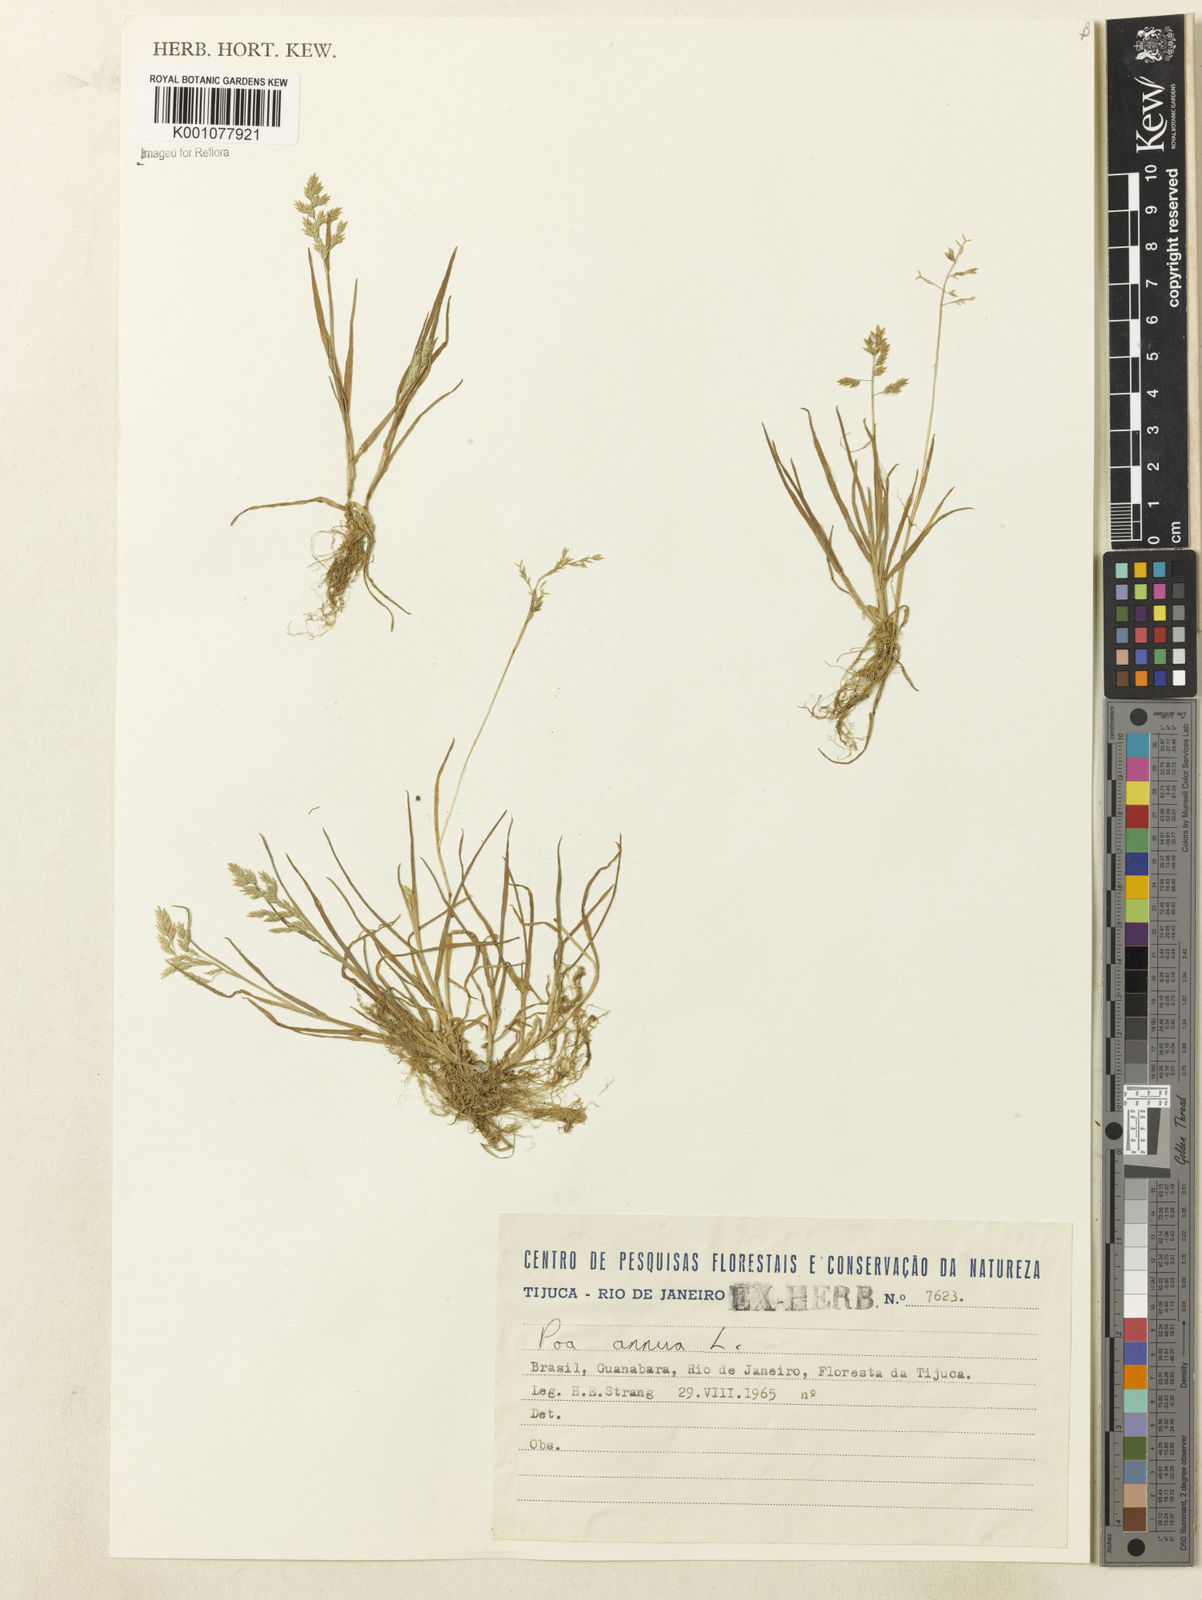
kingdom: Plantae
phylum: Tracheophyta
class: Liliopsida
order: Poales
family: Poaceae
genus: Poa
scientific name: Poa annua
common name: Annual bluegrass
